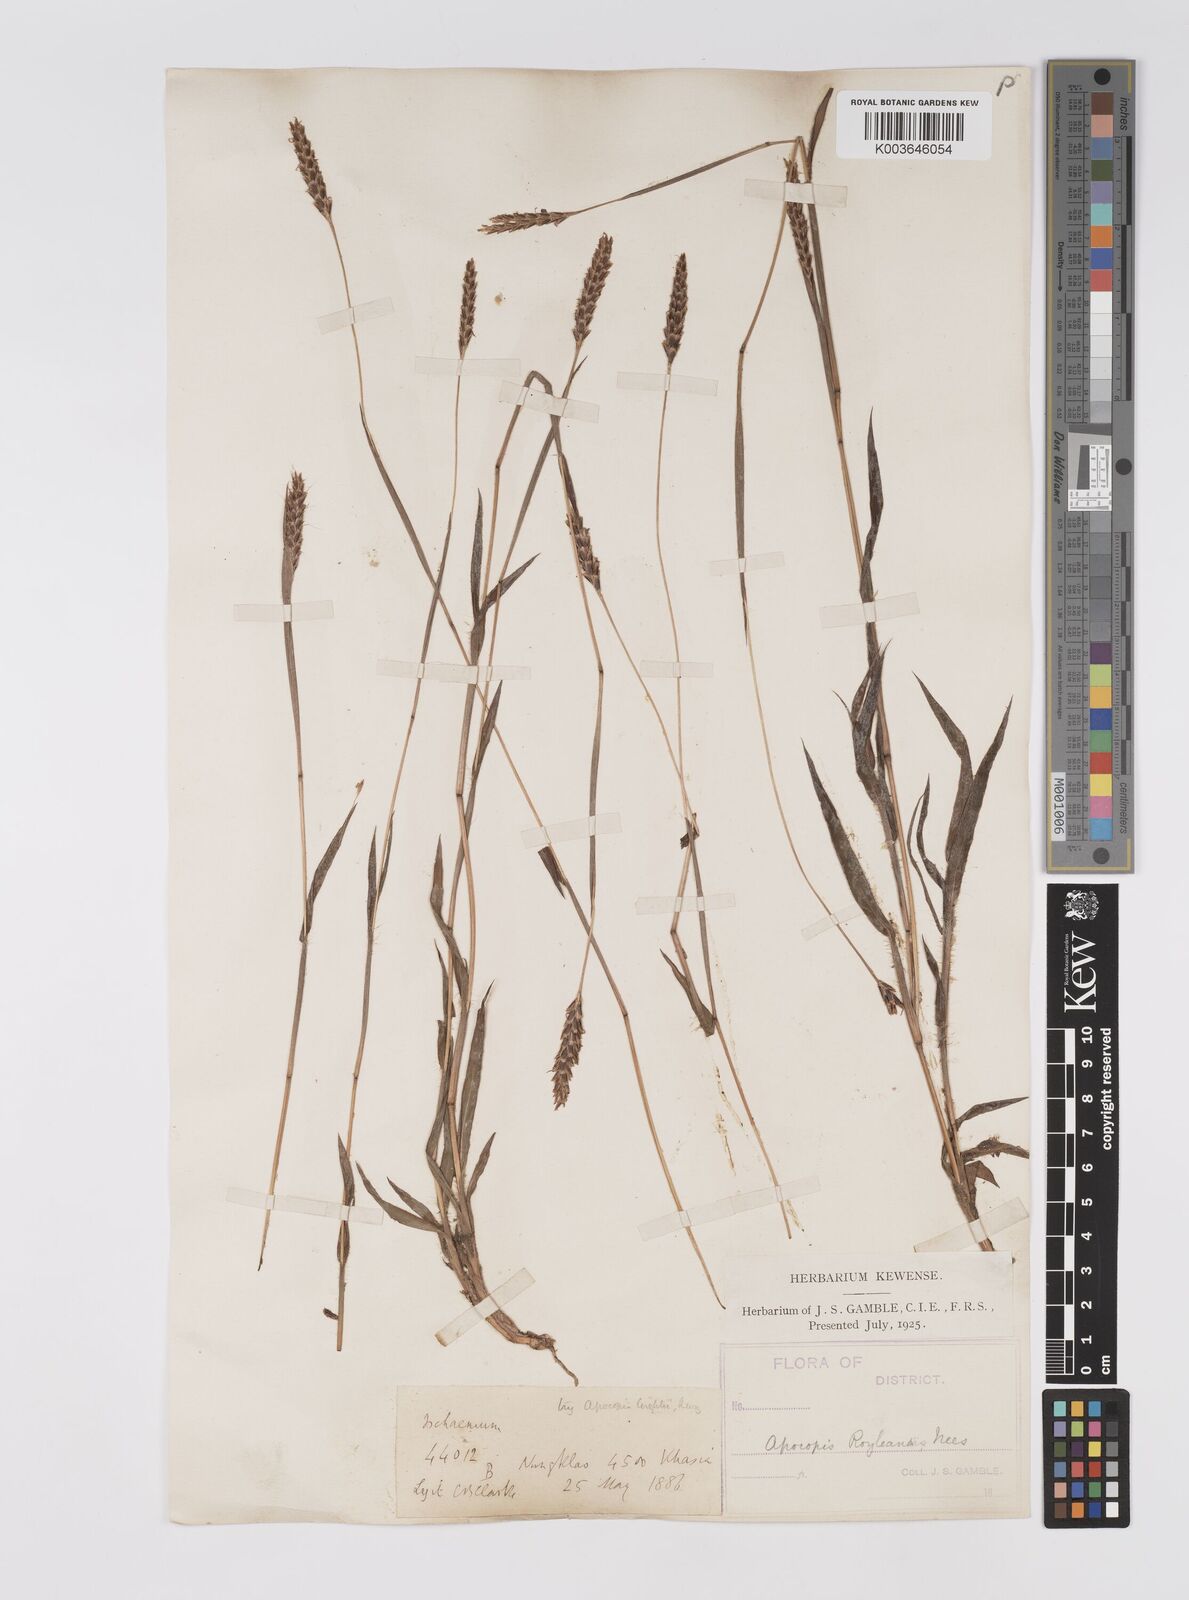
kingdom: Plantae
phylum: Tracheophyta
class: Liliopsida
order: Poales
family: Poaceae
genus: Apocopis
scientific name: Apocopis paleaceus
